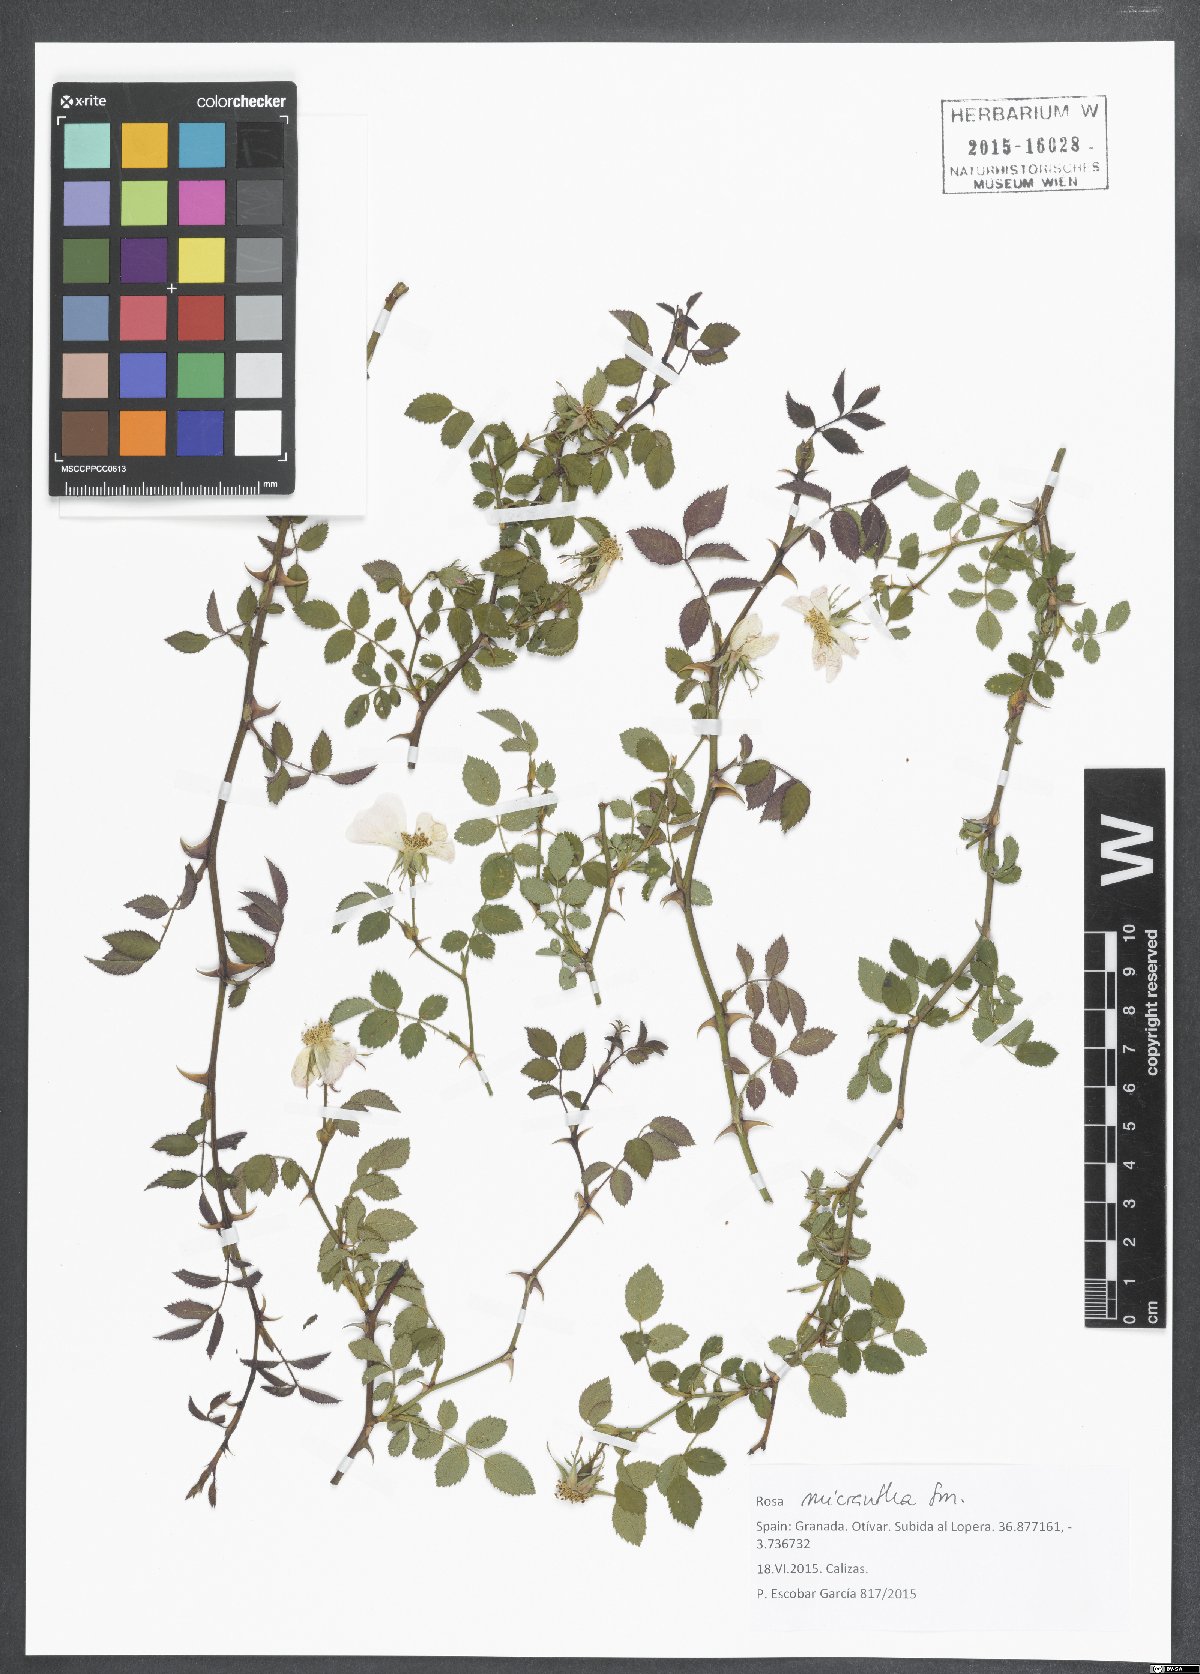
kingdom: Plantae
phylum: Tracheophyta
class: Magnoliopsida
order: Rosales
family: Rosaceae
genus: Rosa
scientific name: Rosa micrantha
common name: Small-flowered sweet-briar
